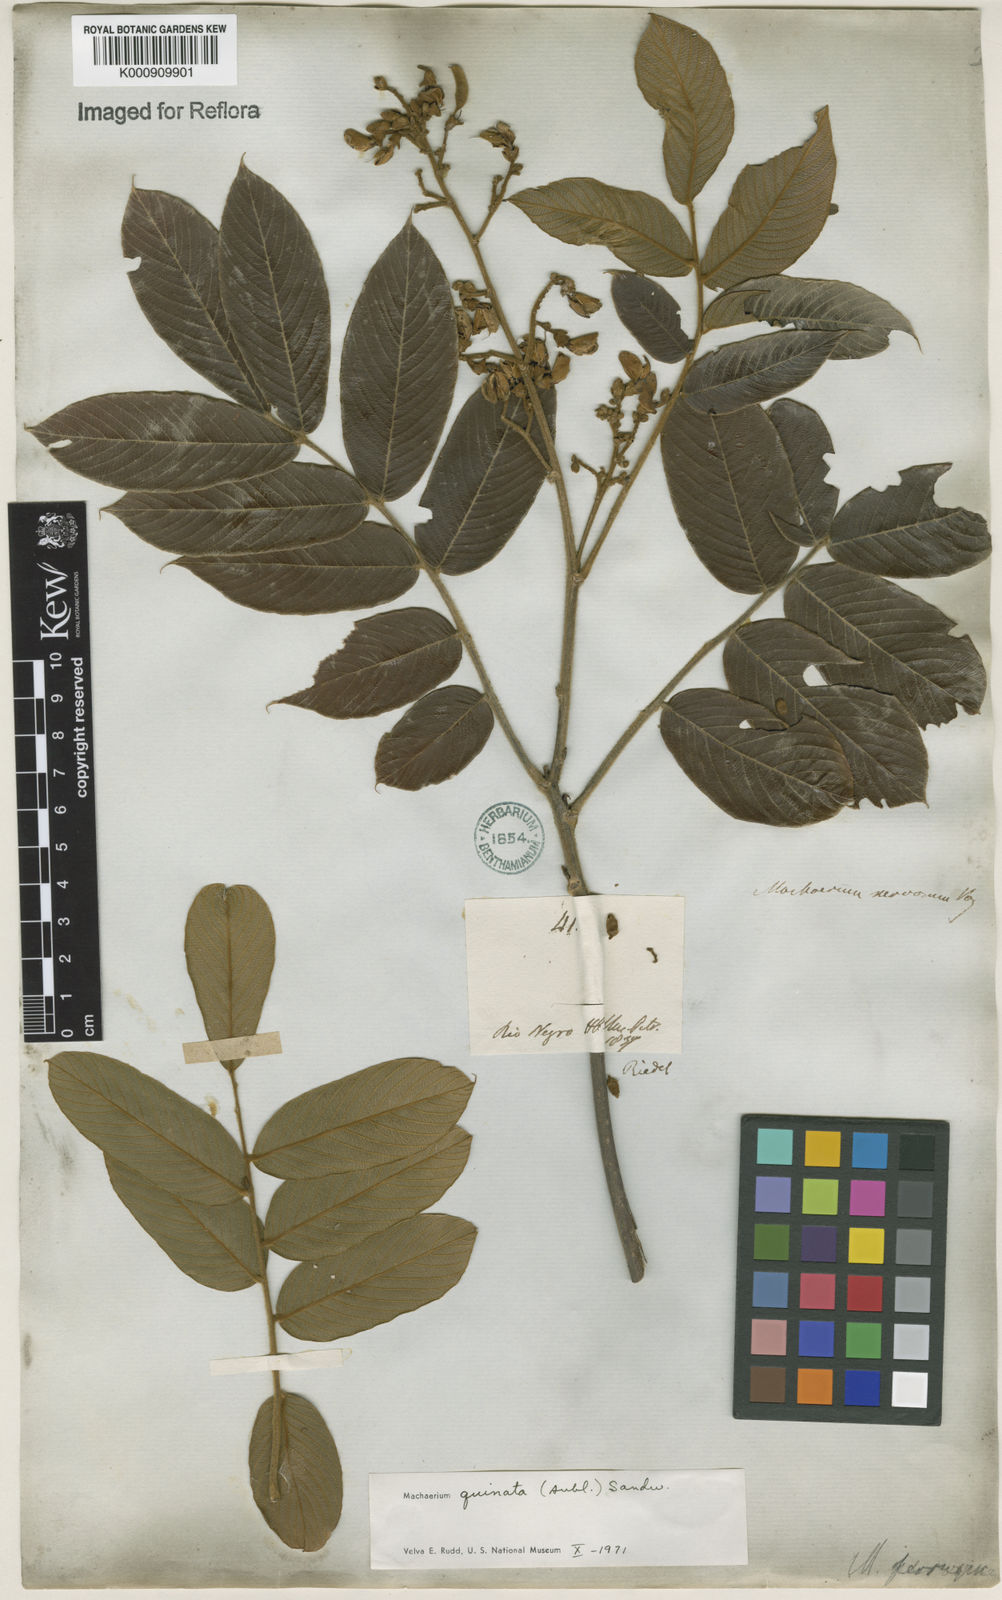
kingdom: Plantae
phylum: Tracheophyta
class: Magnoliopsida
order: Fabales
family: Fabaceae
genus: Machaerium
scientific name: Machaerium quinata
